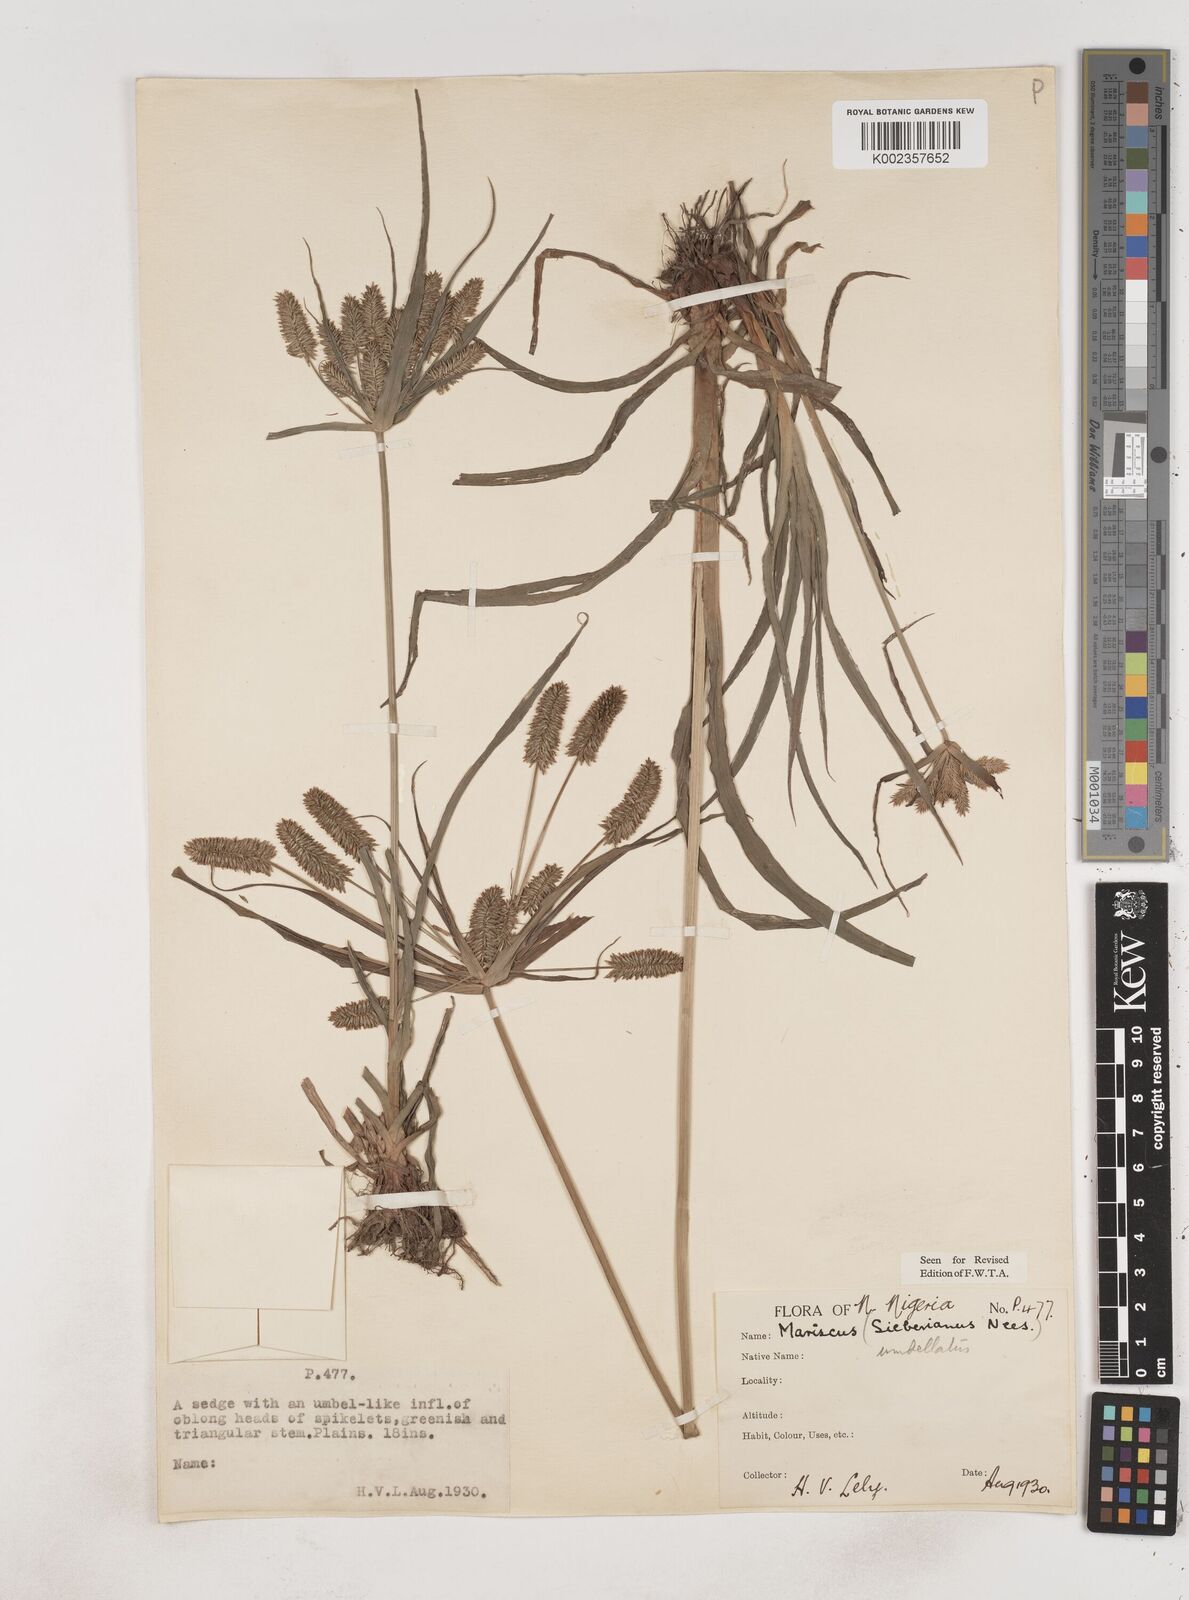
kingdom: Plantae
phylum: Tracheophyta
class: Liliopsida
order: Poales
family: Cyperaceae
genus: Cyperus
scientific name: Cyperus cyperoides
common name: Pacific island flat sedge
